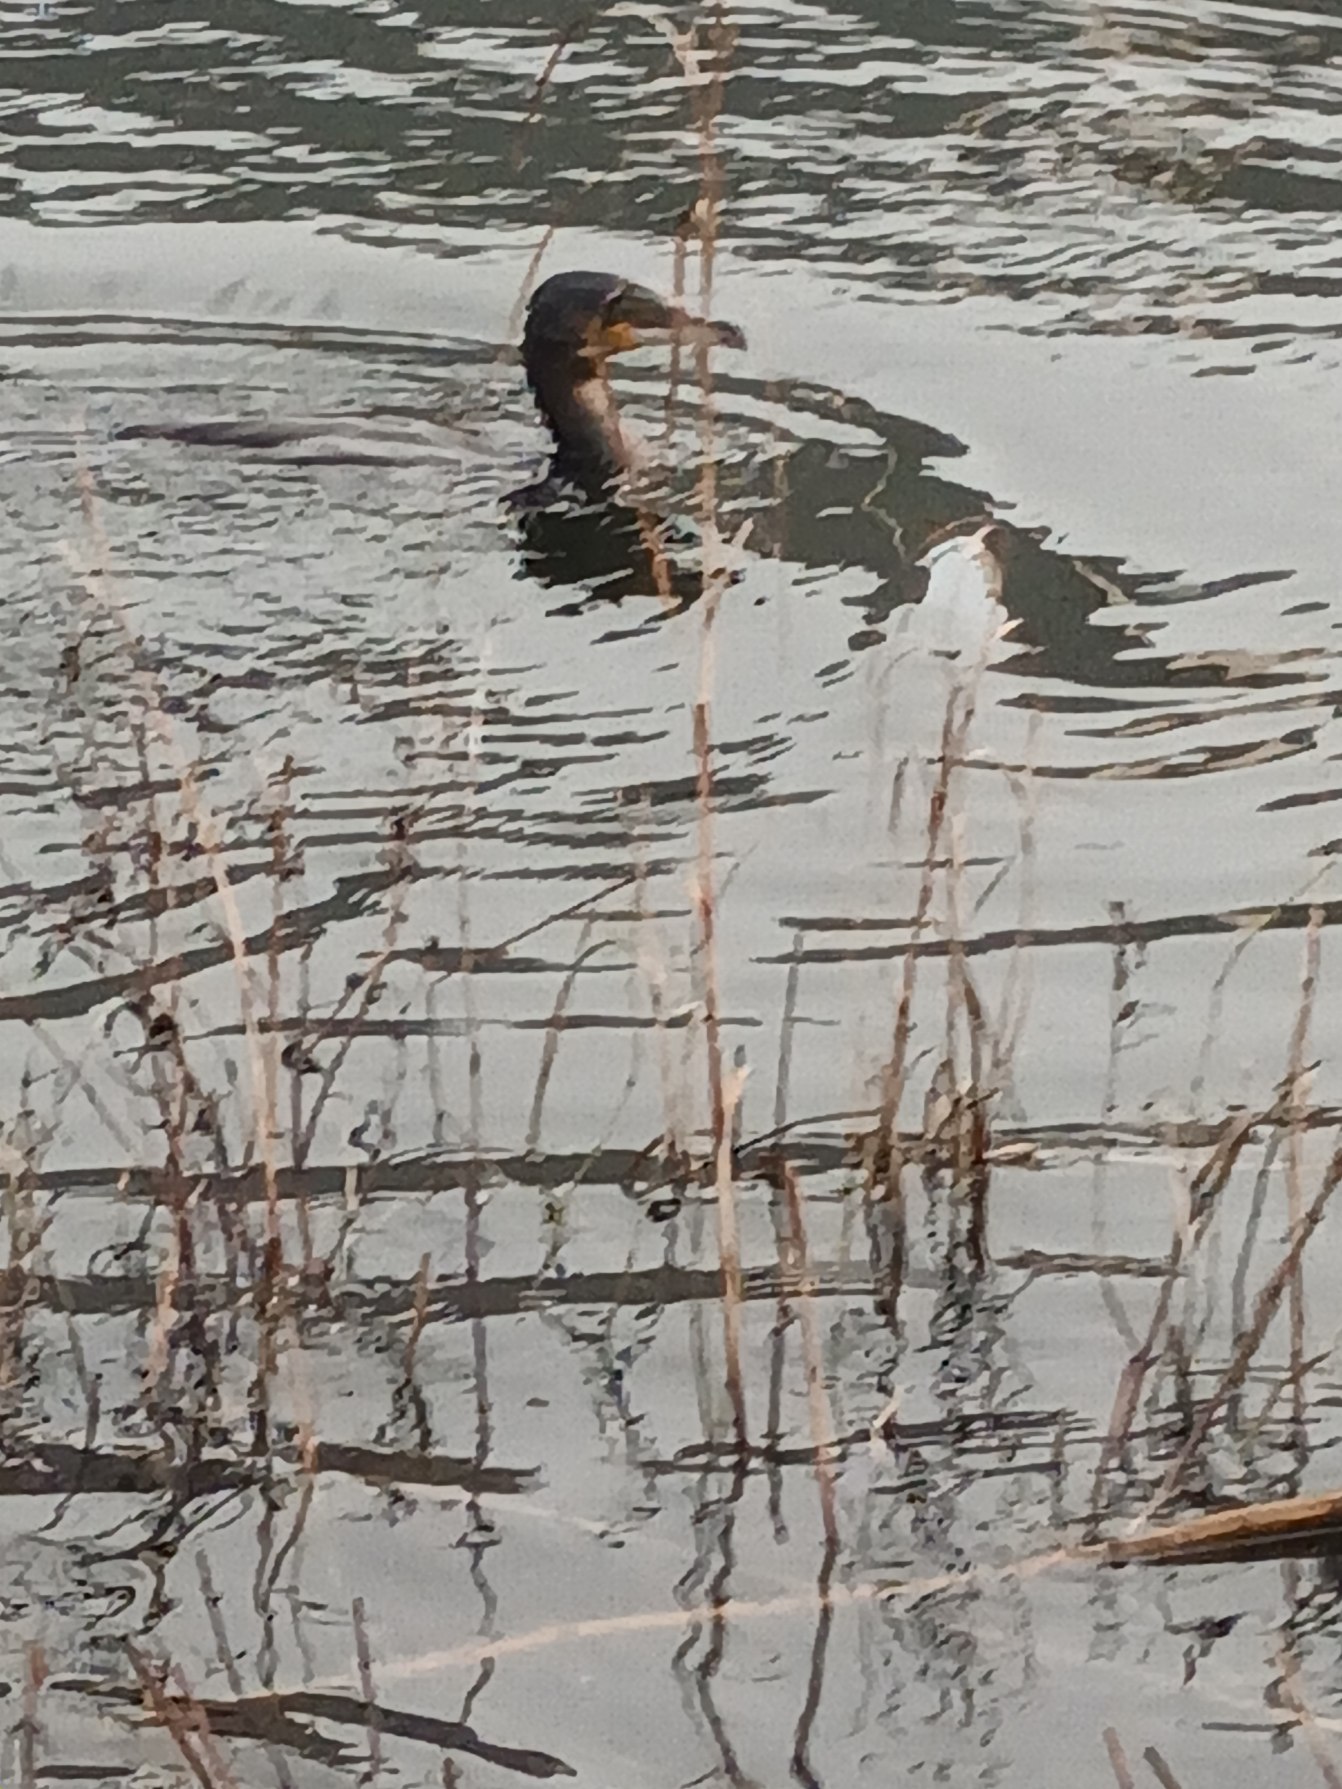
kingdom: Animalia
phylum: Chordata
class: Aves
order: Suliformes
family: Phalacrocoracidae
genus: Phalacrocorax
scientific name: Phalacrocorax carbo
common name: Skarv
